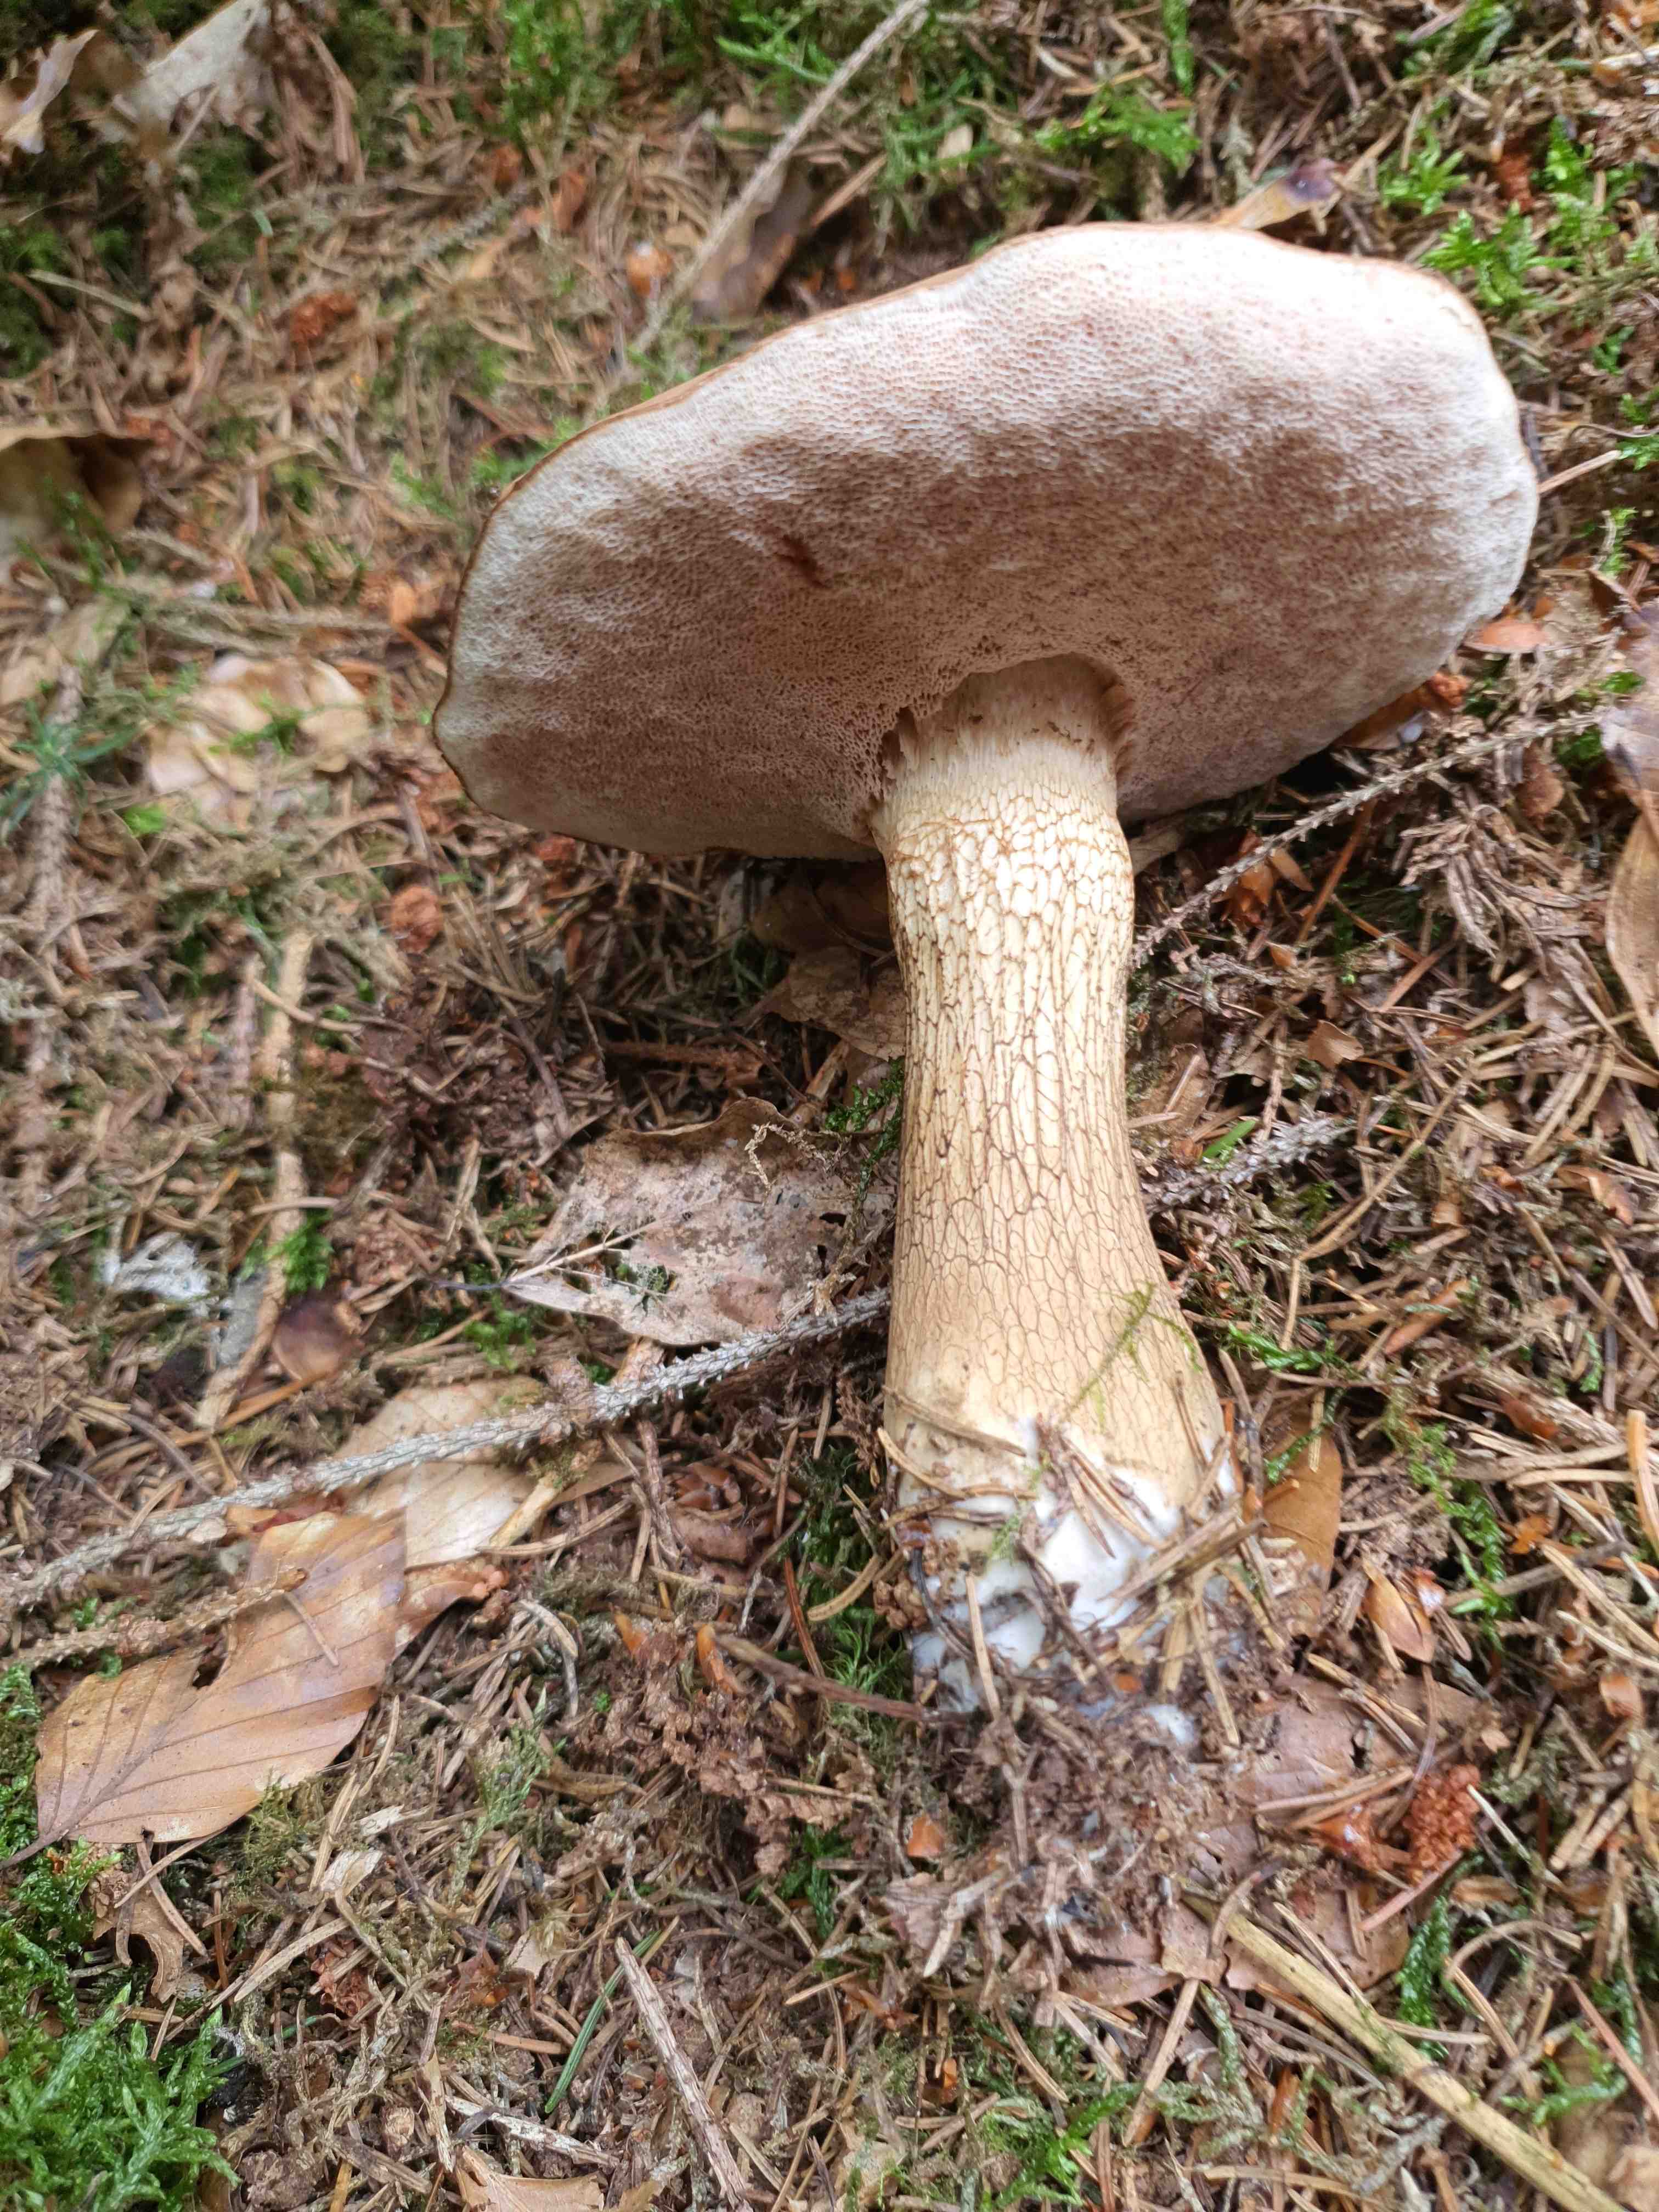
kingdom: Fungi
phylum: Basidiomycota
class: Agaricomycetes
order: Boletales
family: Boletaceae
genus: Tylopilus
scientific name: Tylopilus felleus
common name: galderørhat
